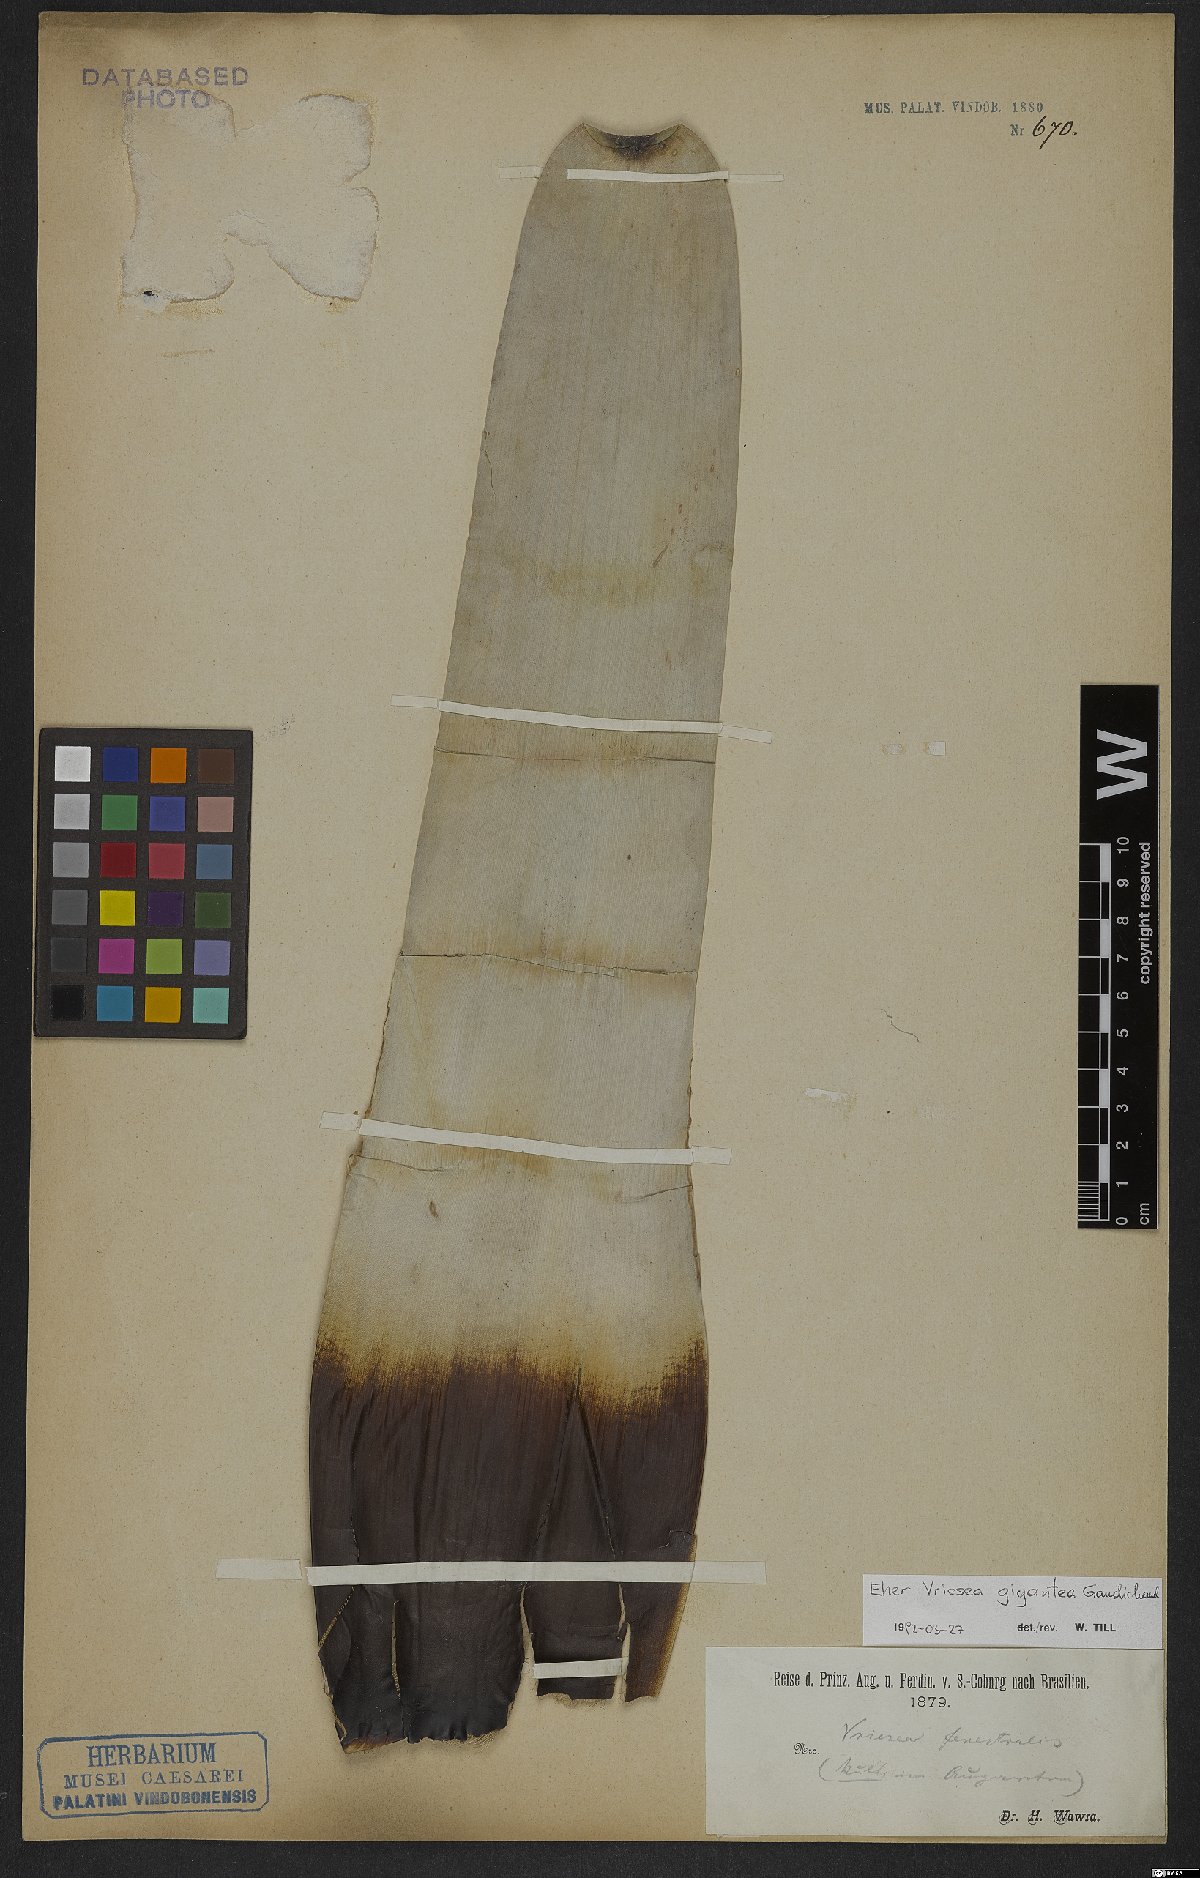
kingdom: Plantae
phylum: Tracheophyta
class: Liliopsida
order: Poales
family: Bromeliaceae
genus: Vriesea
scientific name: Vriesea gigantea
